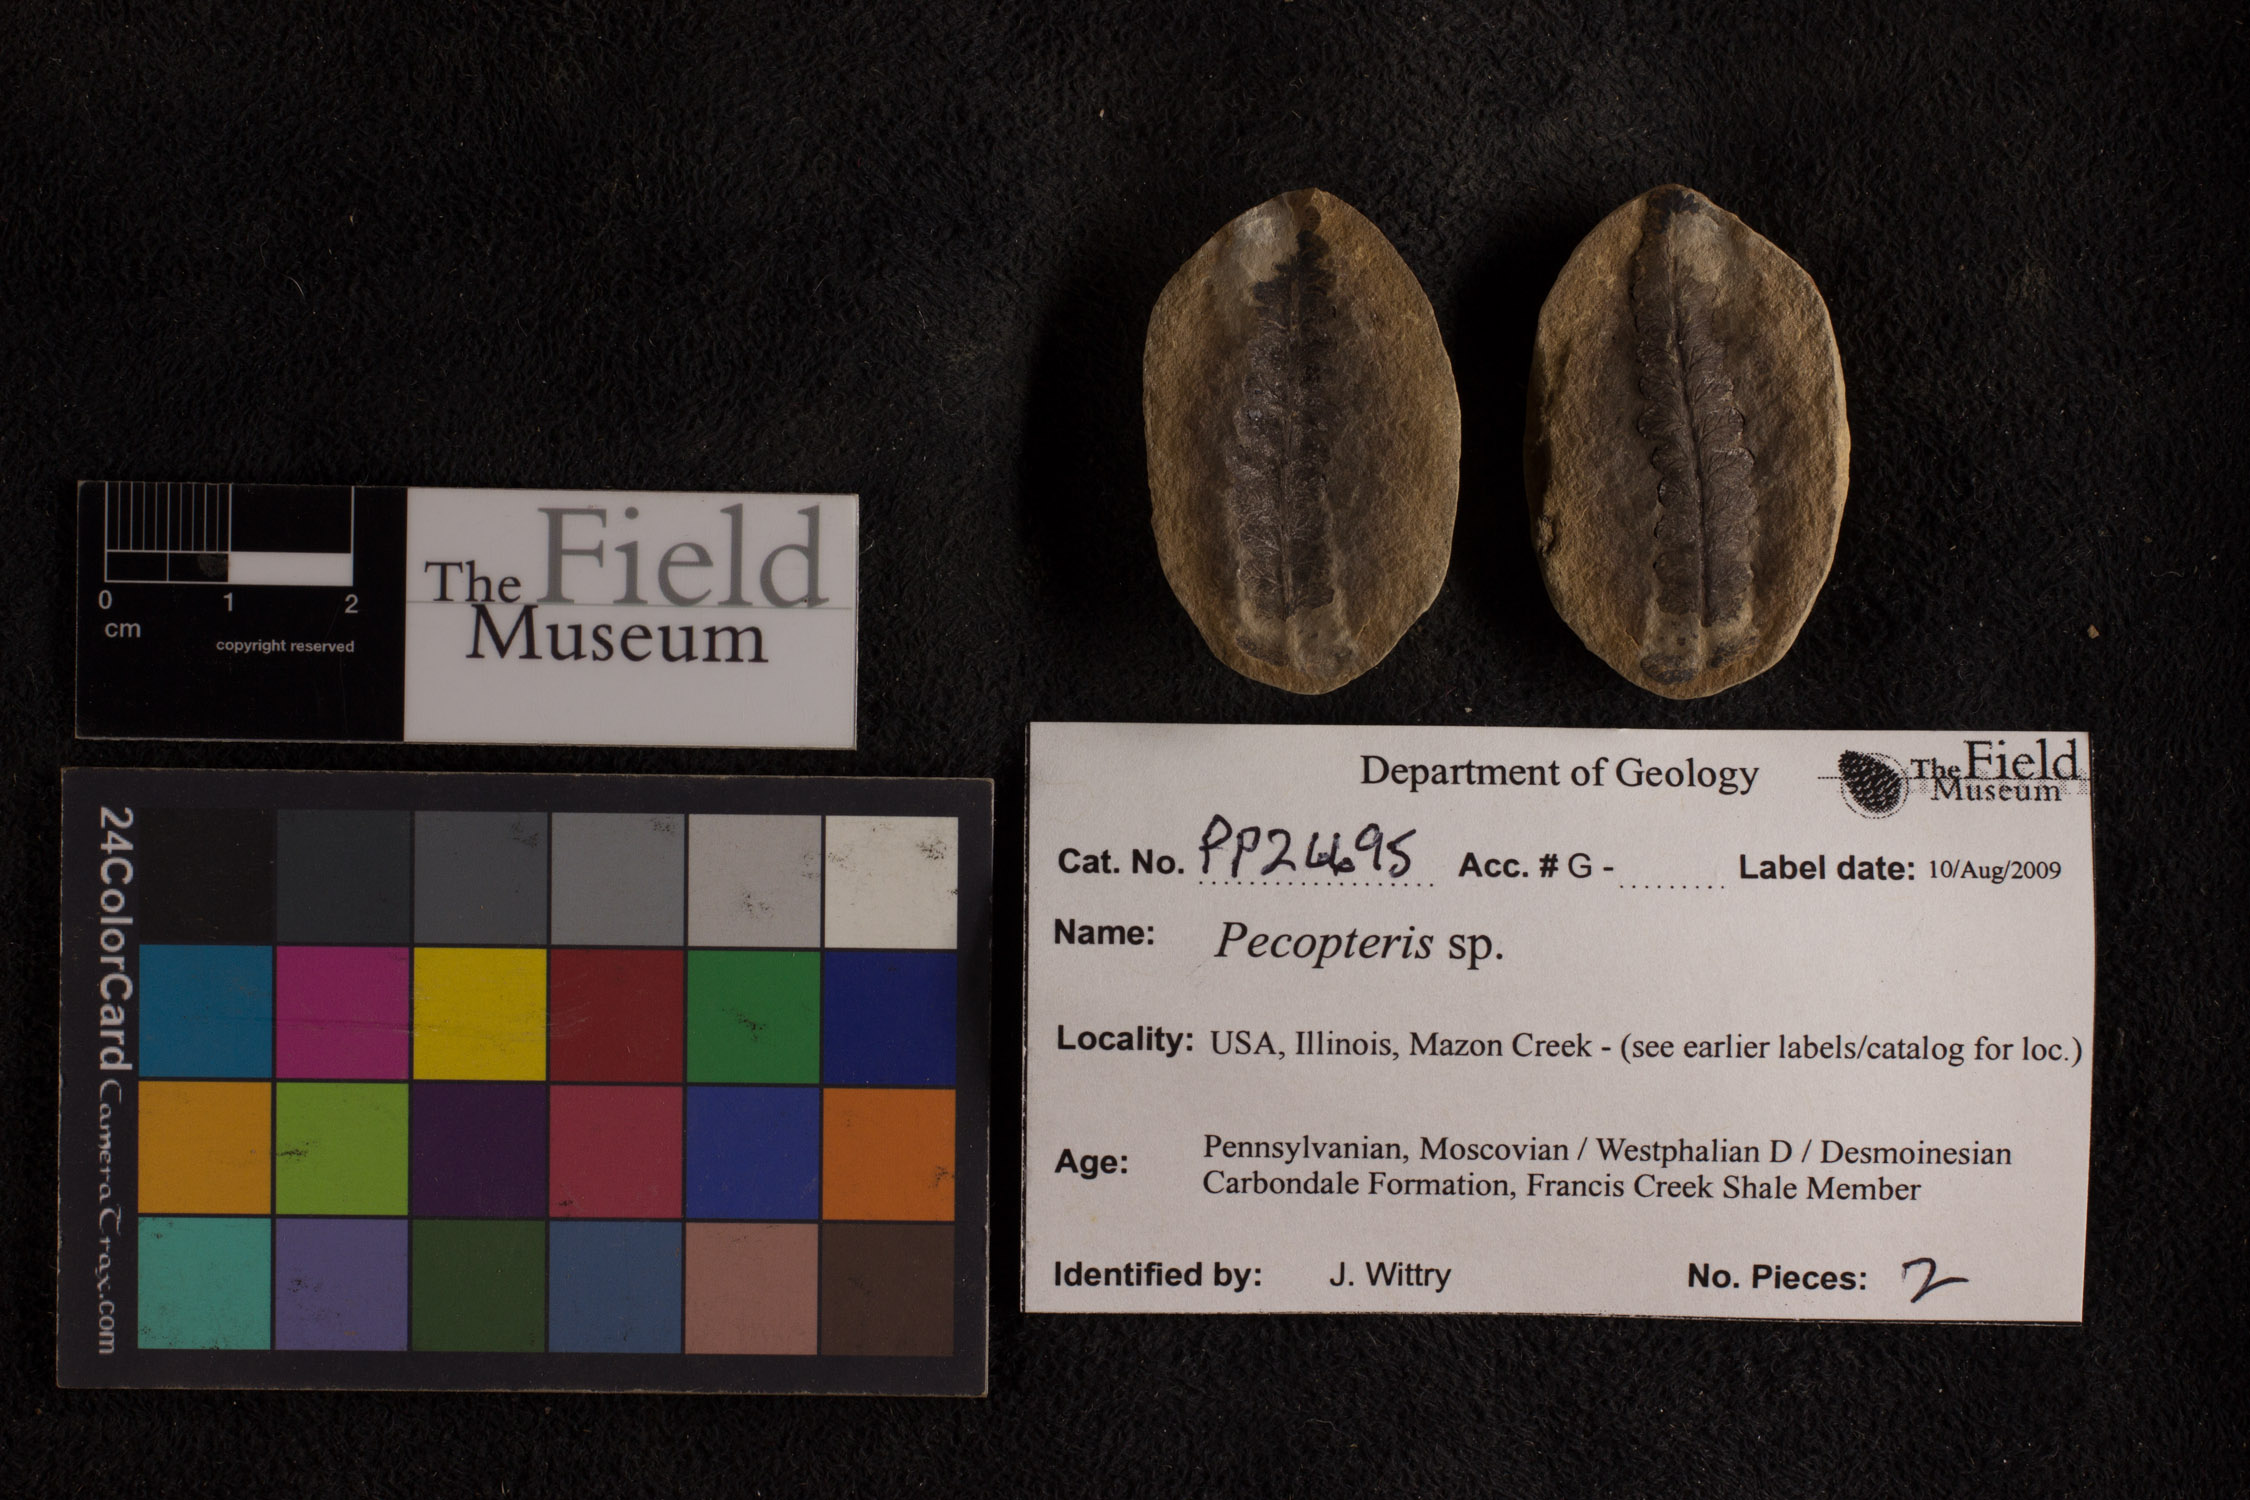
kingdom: Plantae
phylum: Tracheophyta
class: Polypodiopsida
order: Marattiales
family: Asterothecaceae
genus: Pecopteris
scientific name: Pecopteris
